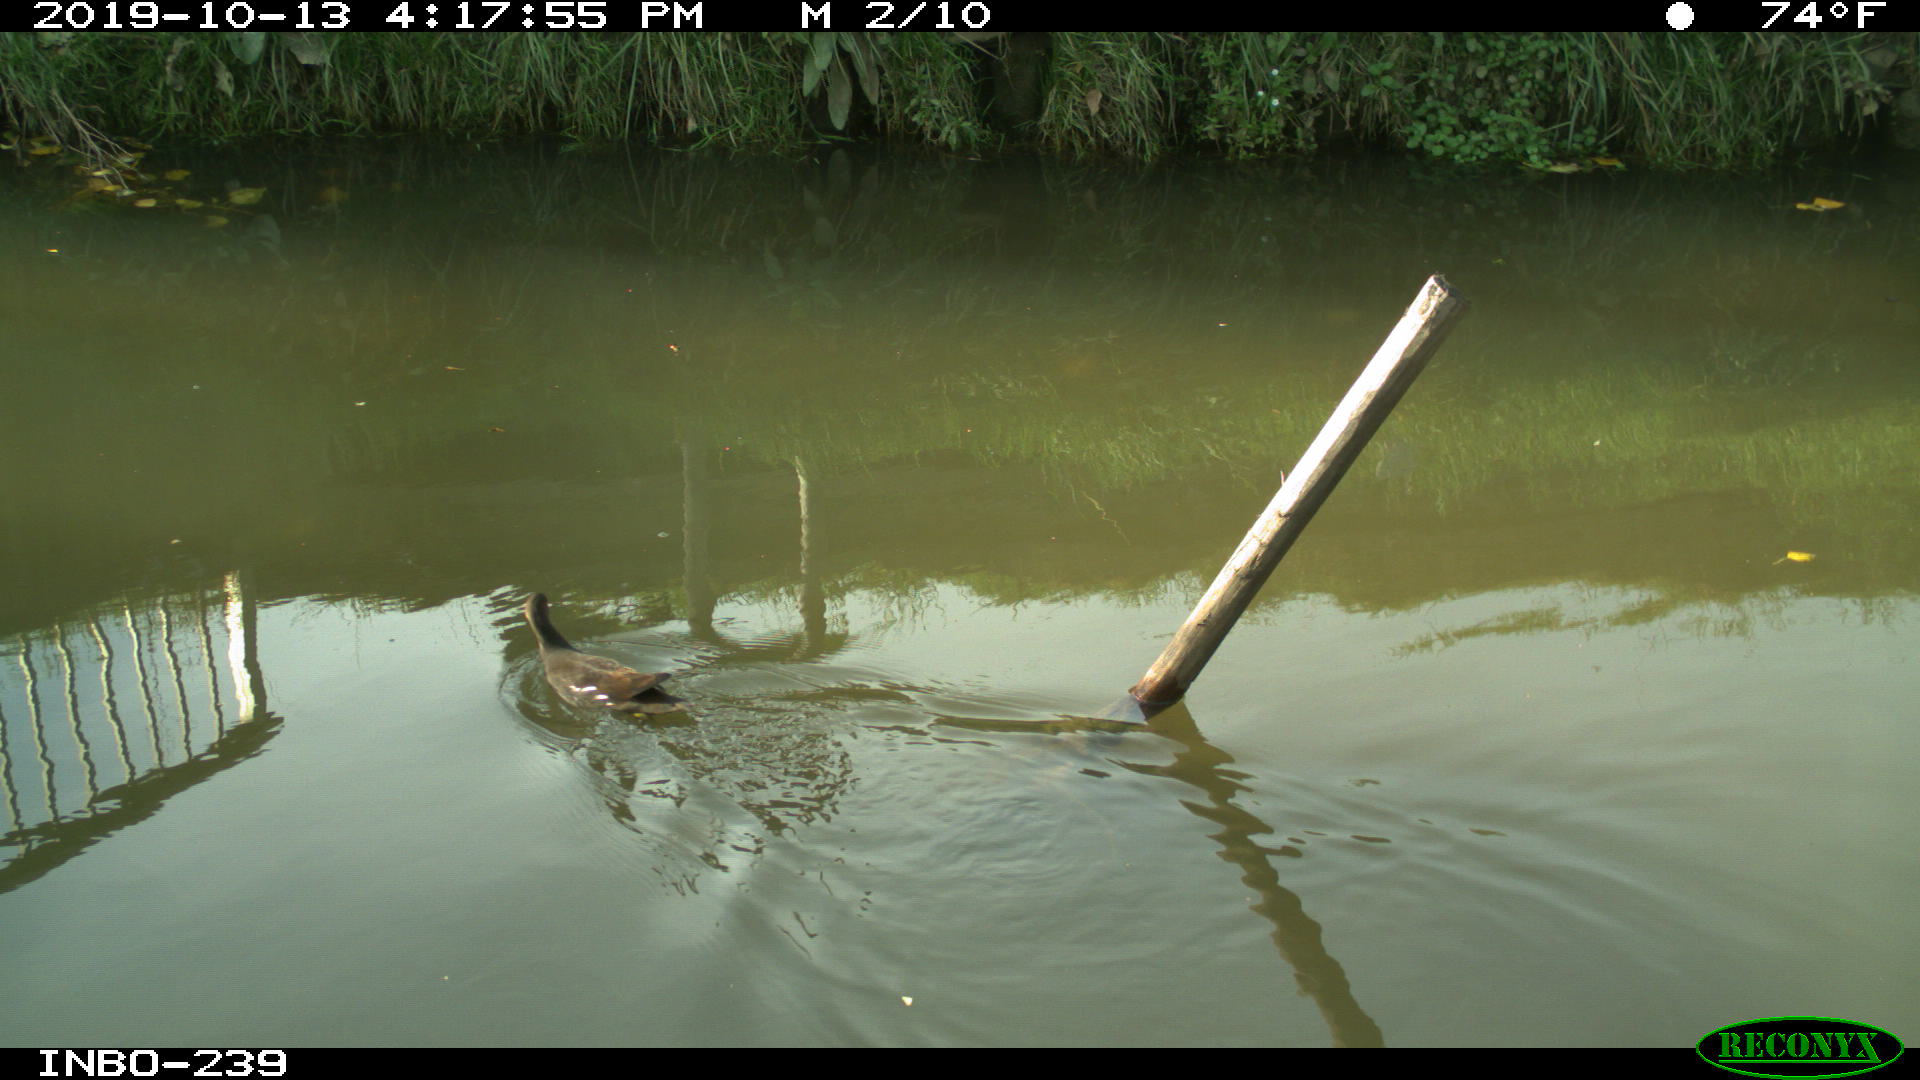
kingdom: Animalia
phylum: Chordata
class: Aves
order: Gruiformes
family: Rallidae
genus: Gallinula
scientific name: Gallinula chloropus
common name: Common moorhen
